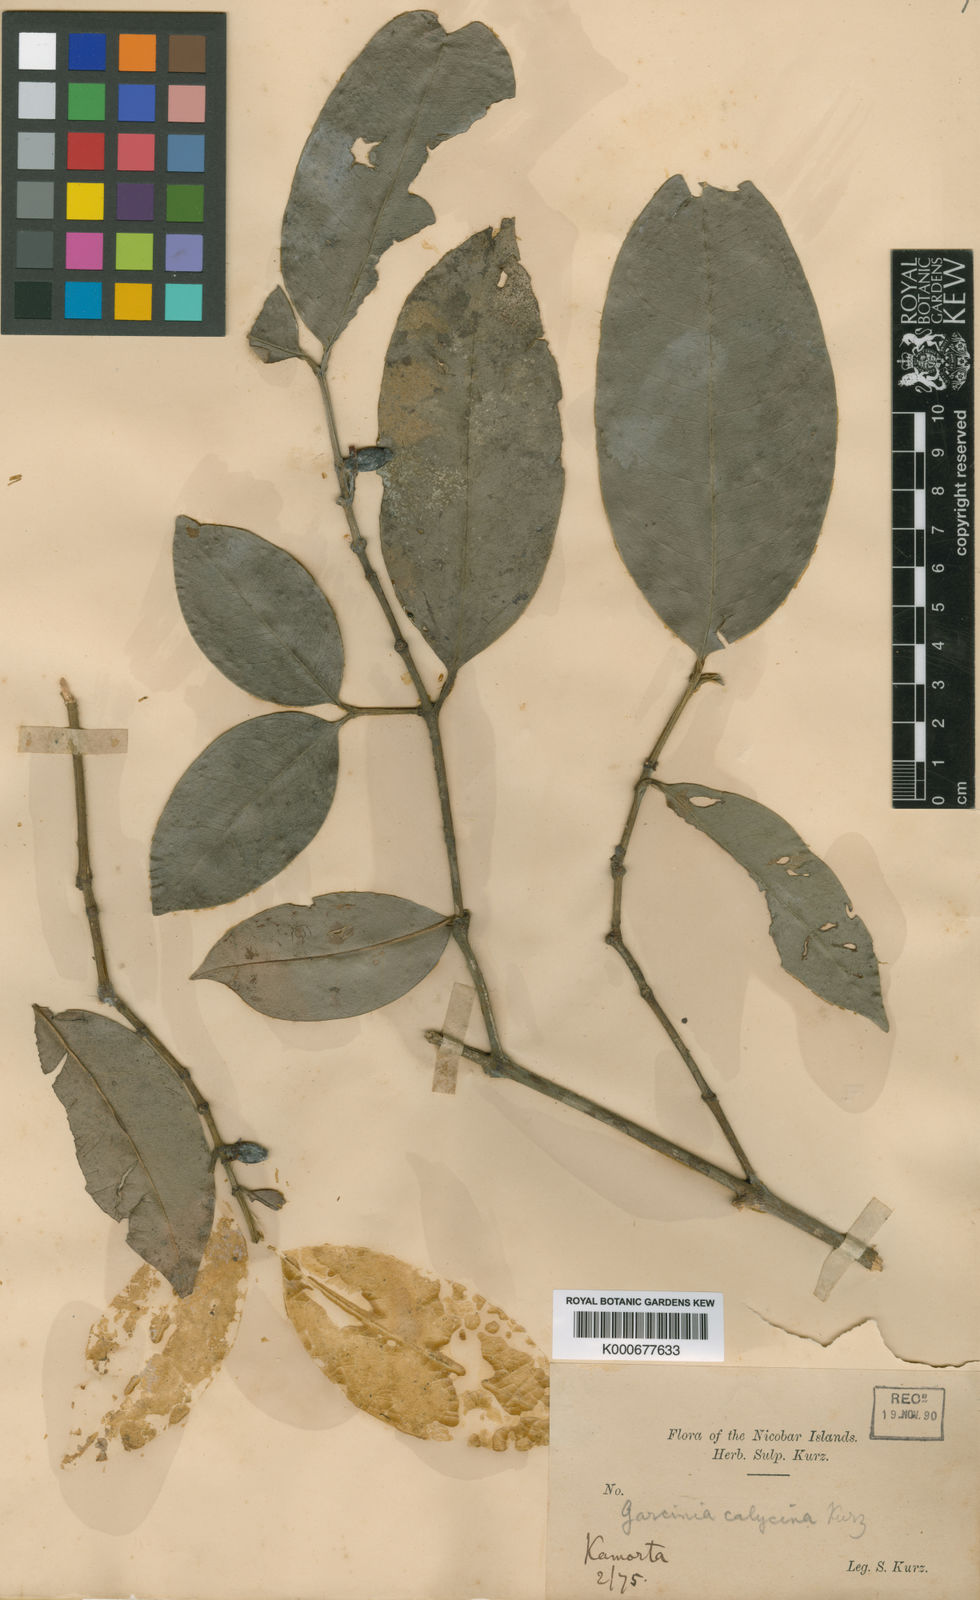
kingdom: Plantae
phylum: Tracheophyta
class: Magnoliopsida
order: Malpighiales
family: Clusiaceae
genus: Garcinia
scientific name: Garcinia calycina
